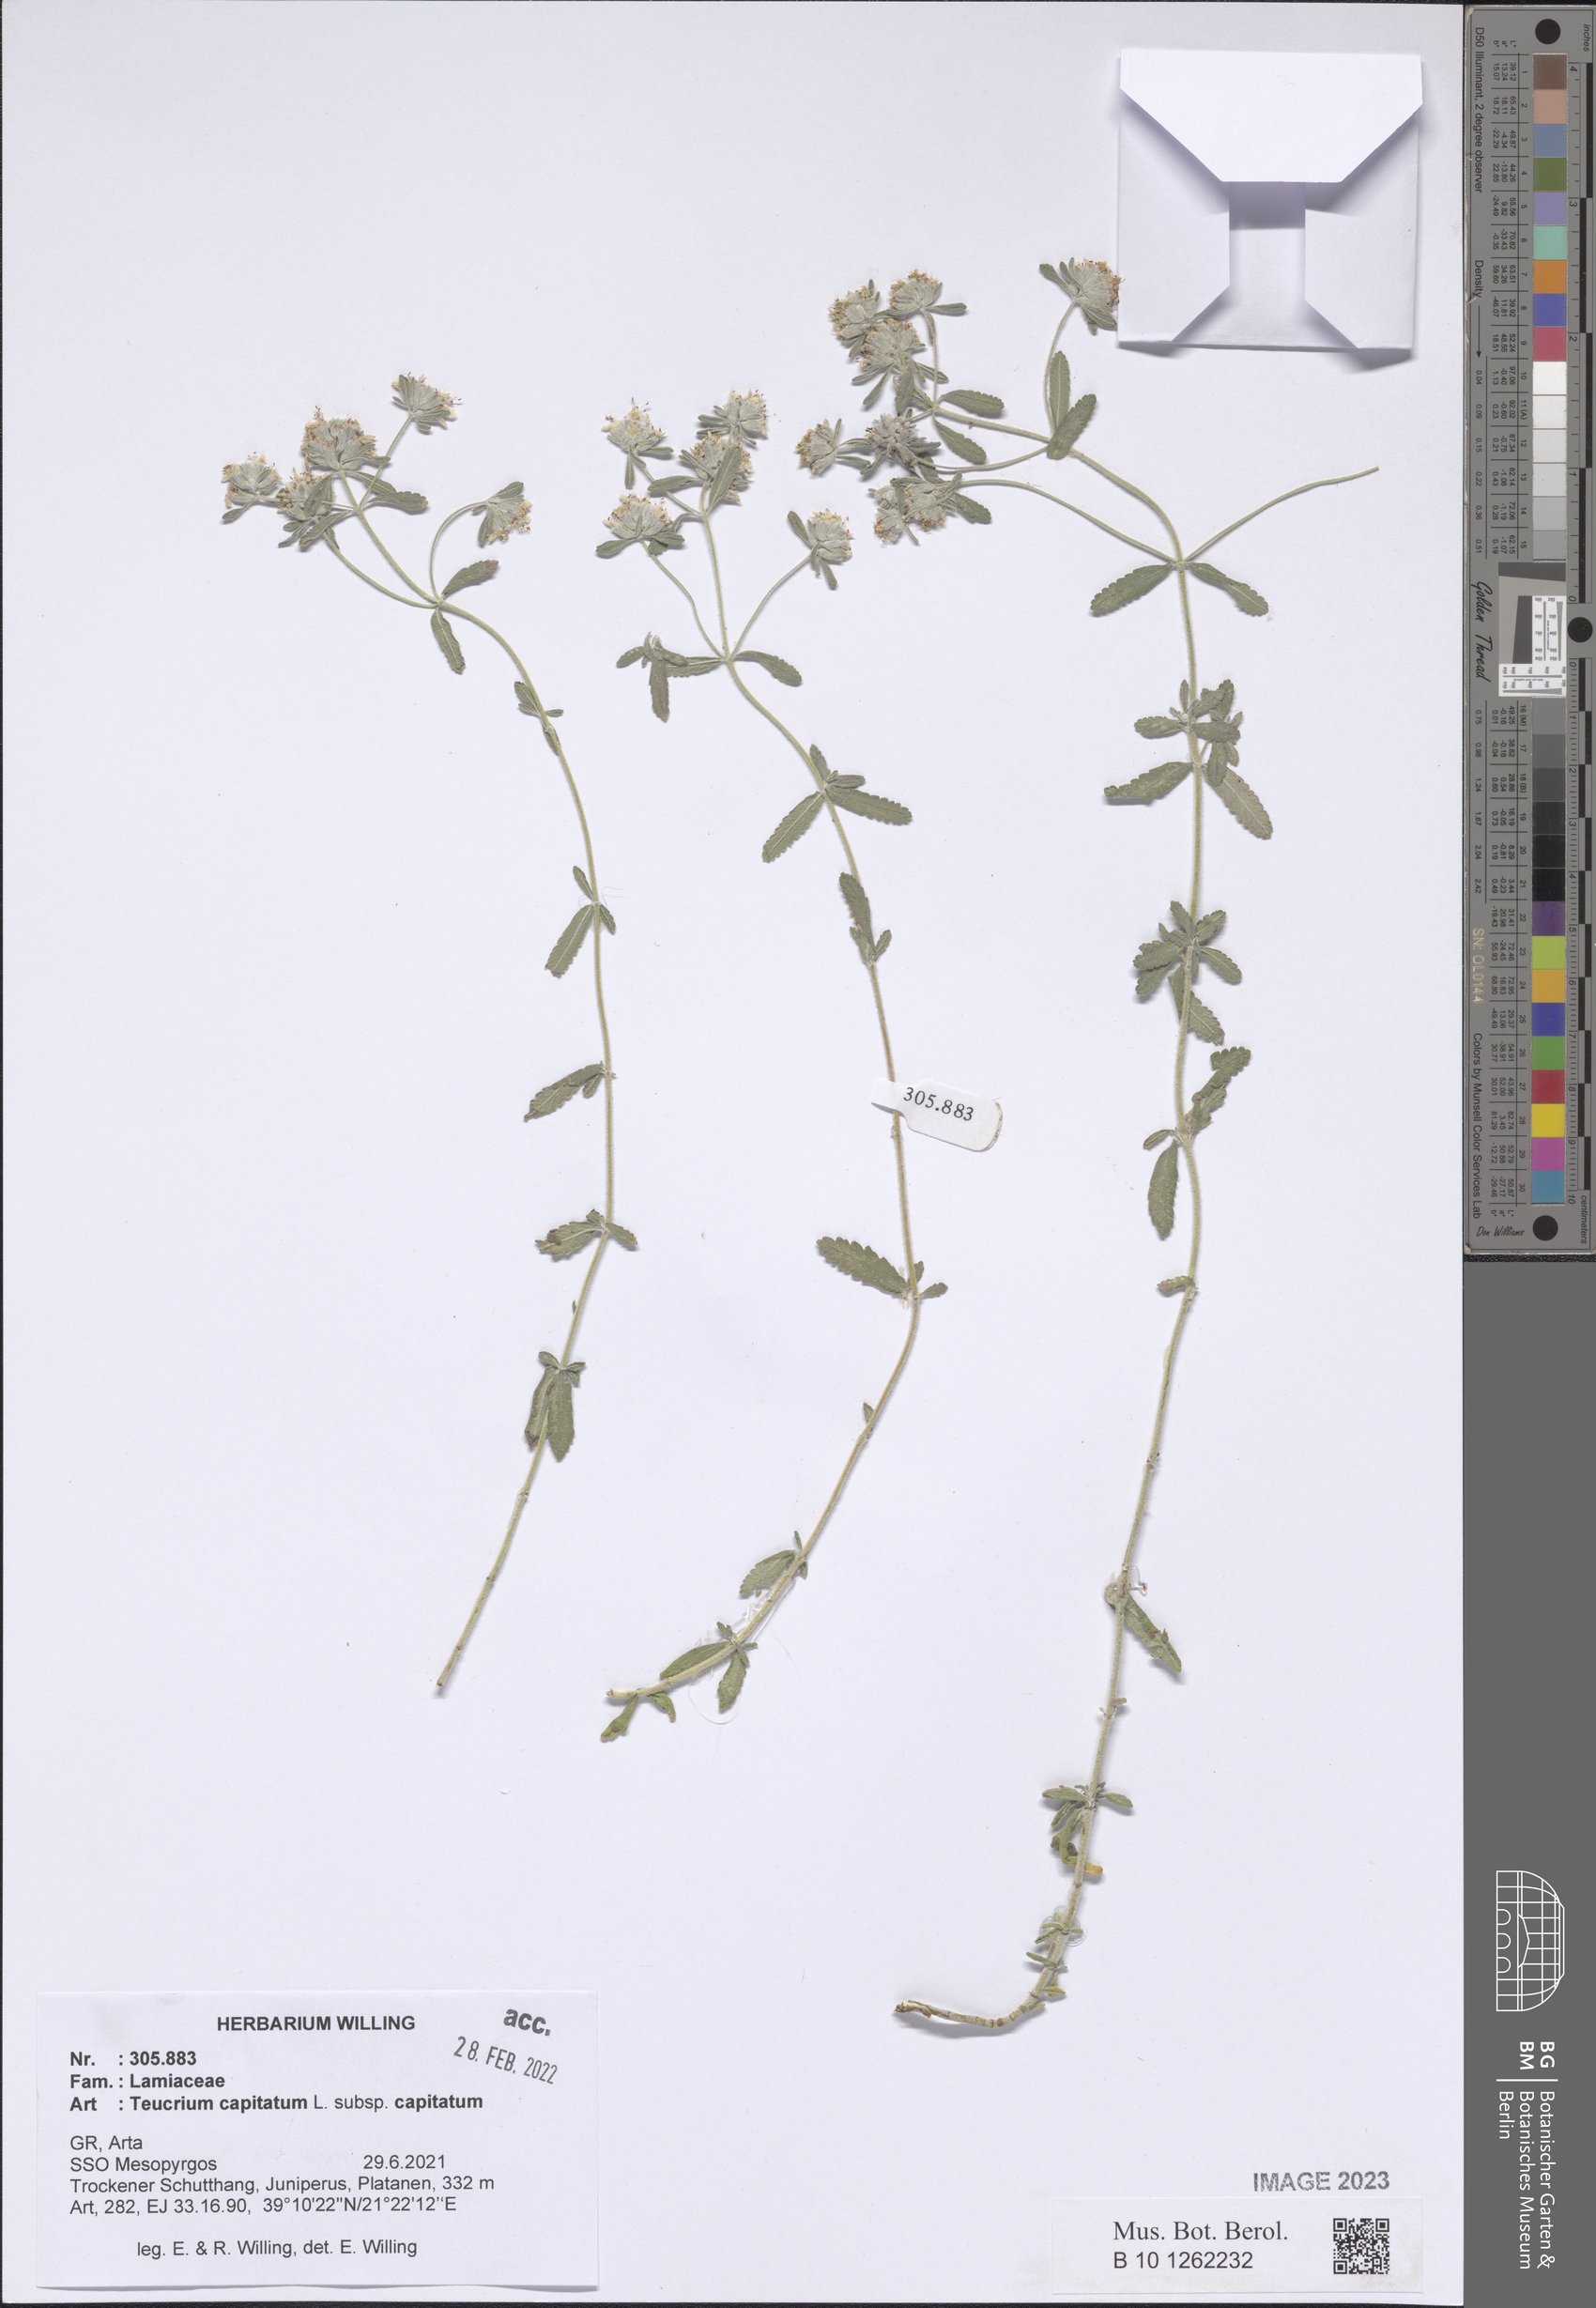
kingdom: Plantae
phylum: Tracheophyta
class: Magnoliopsida
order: Lamiales
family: Lamiaceae
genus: Teucrium
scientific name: Teucrium capitatum
